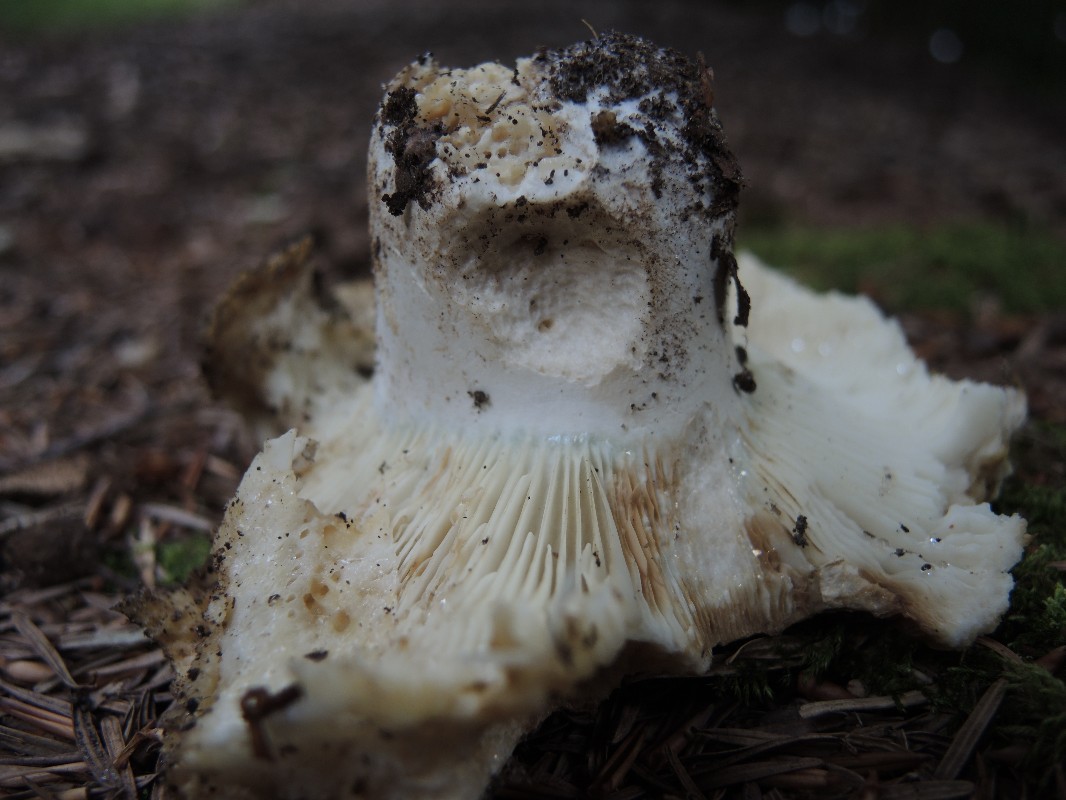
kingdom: Fungi
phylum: Basidiomycota
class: Agaricomycetes
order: Russulales
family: Russulaceae
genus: Russula
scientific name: Russula chloroides
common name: grønhalset tragt-skørhat
